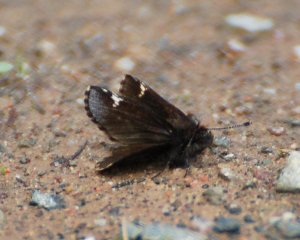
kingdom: Animalia
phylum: Arthropoda
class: Insecta
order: Lepidoptera
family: Hesperiidae
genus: Mastor
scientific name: Mastor vialis
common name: Common Roadside-Skipper
